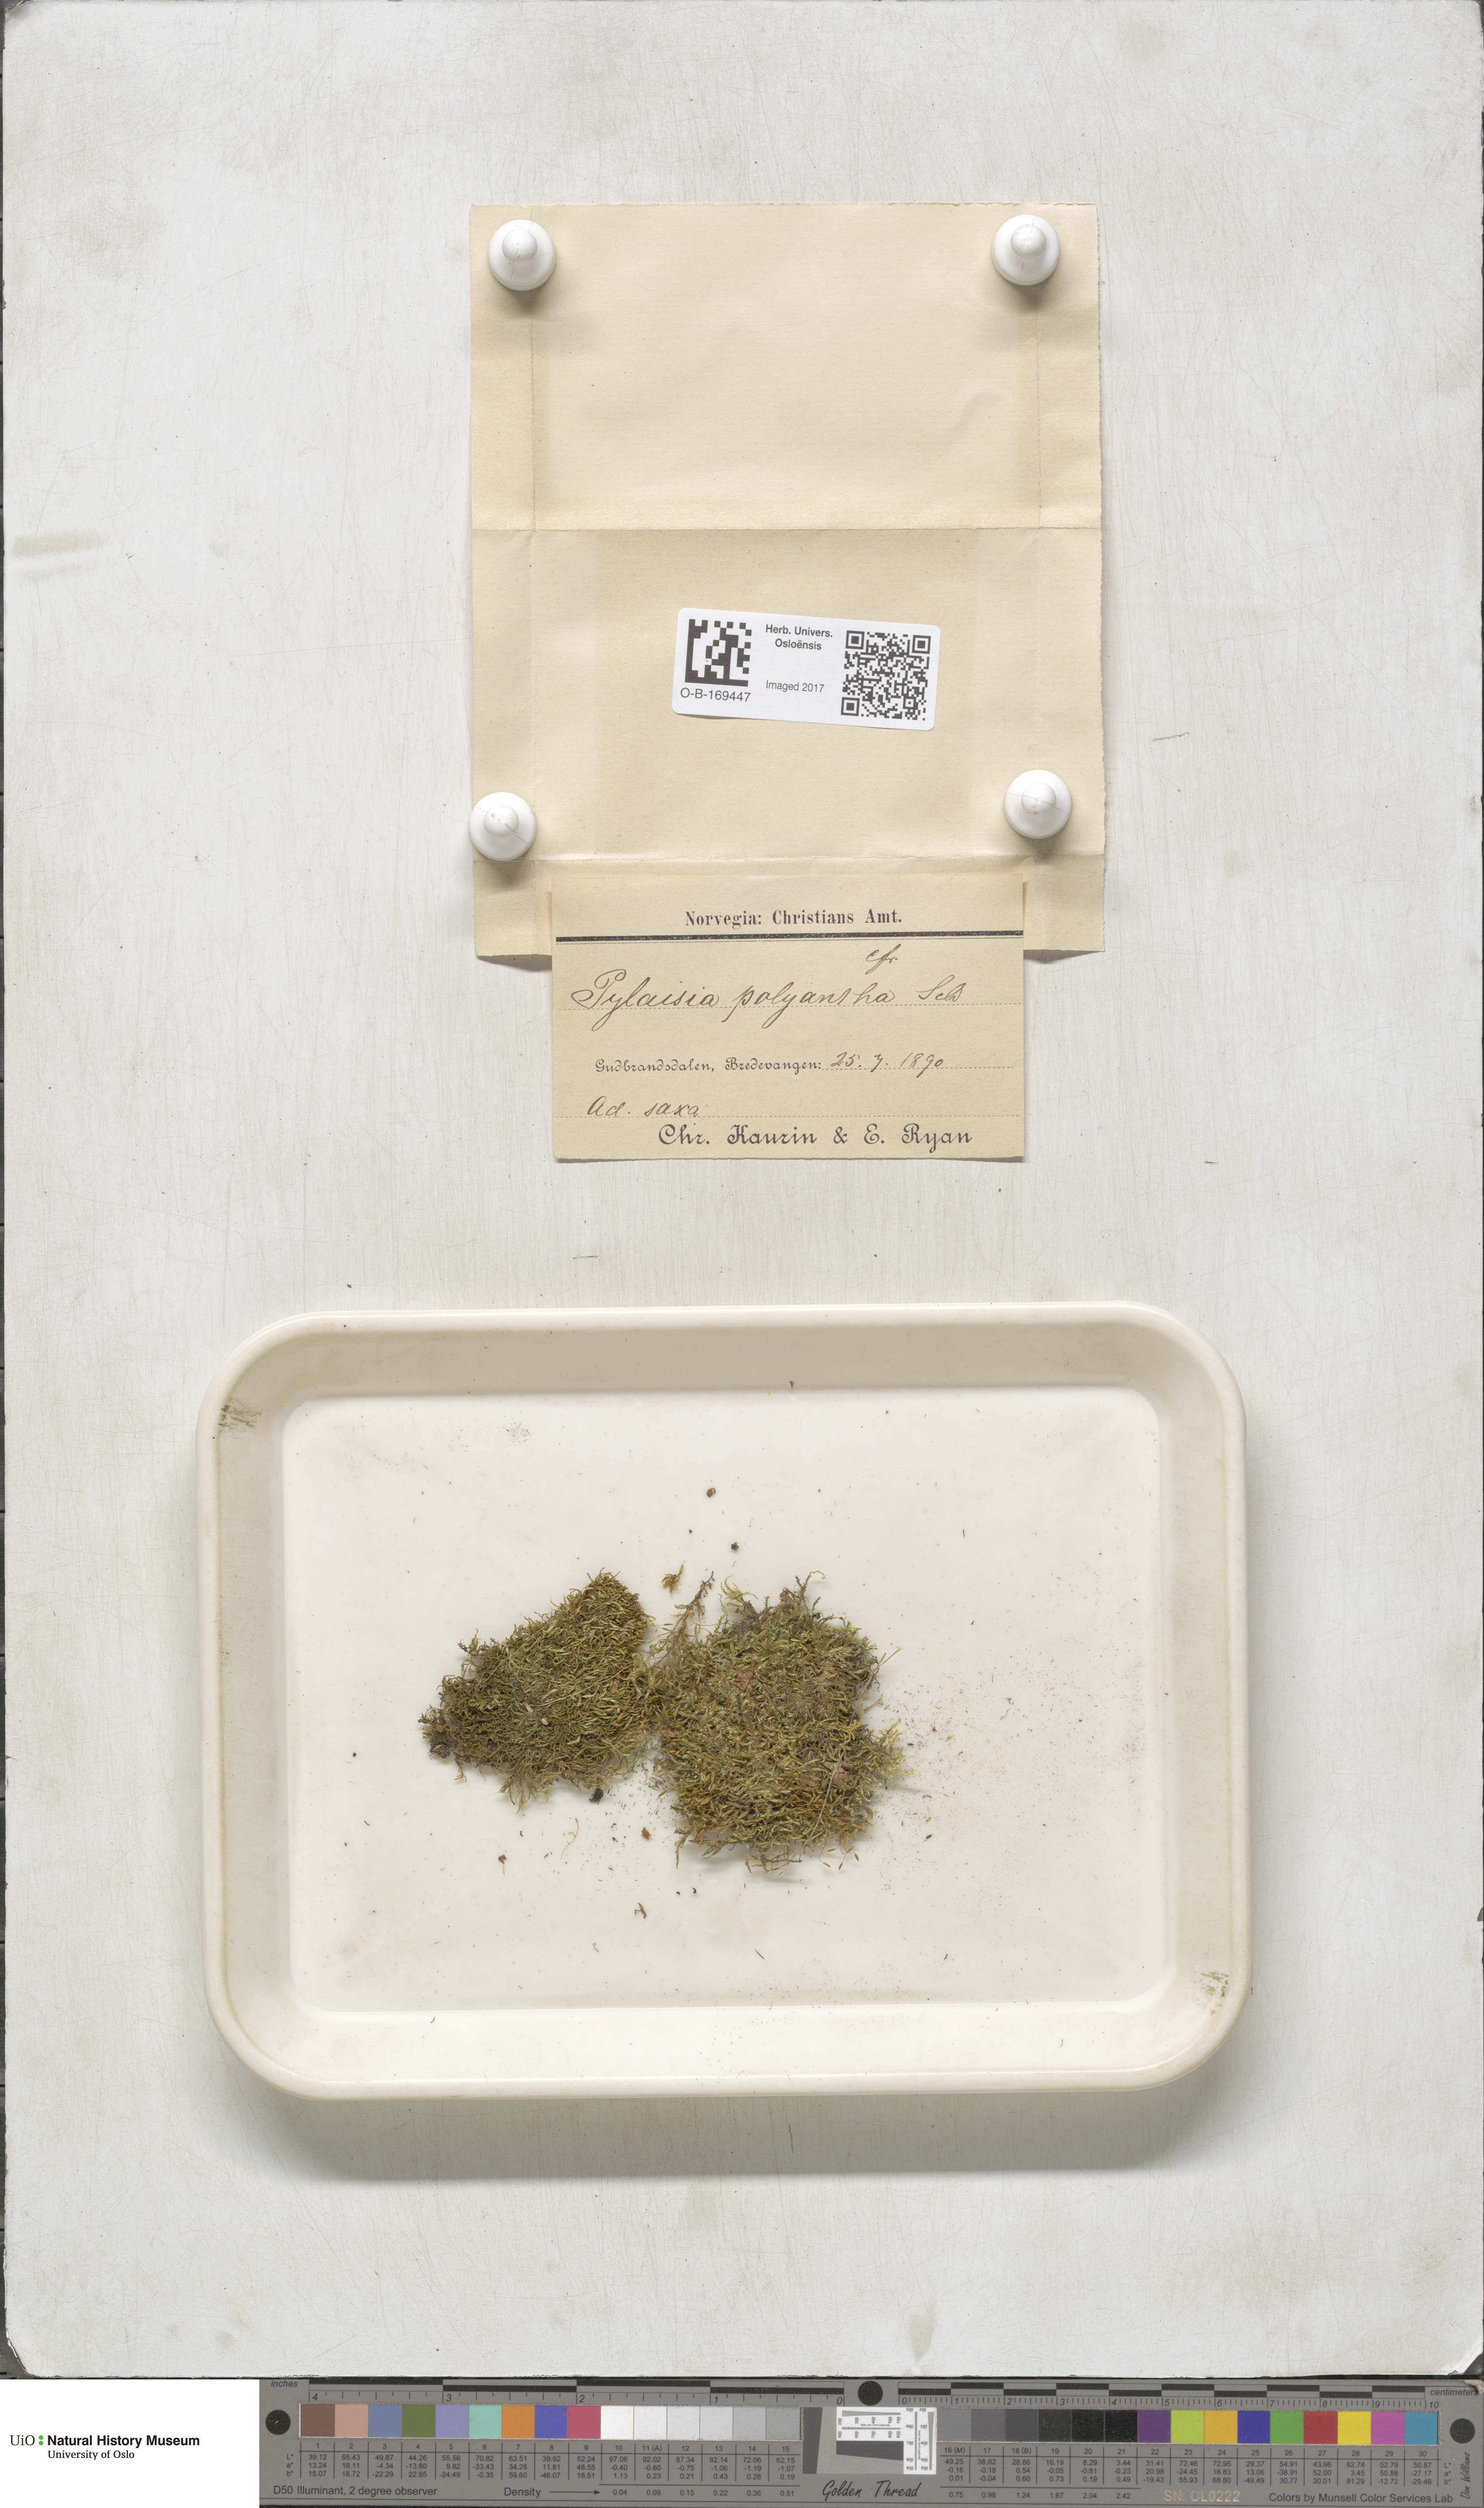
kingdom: Plantae
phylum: Bryophyta
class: Bryopsida
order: Hypnales
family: Pylaisiaceae
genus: Pylaisia
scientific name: Pylaisia polyantha
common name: Many-flowered leskea
